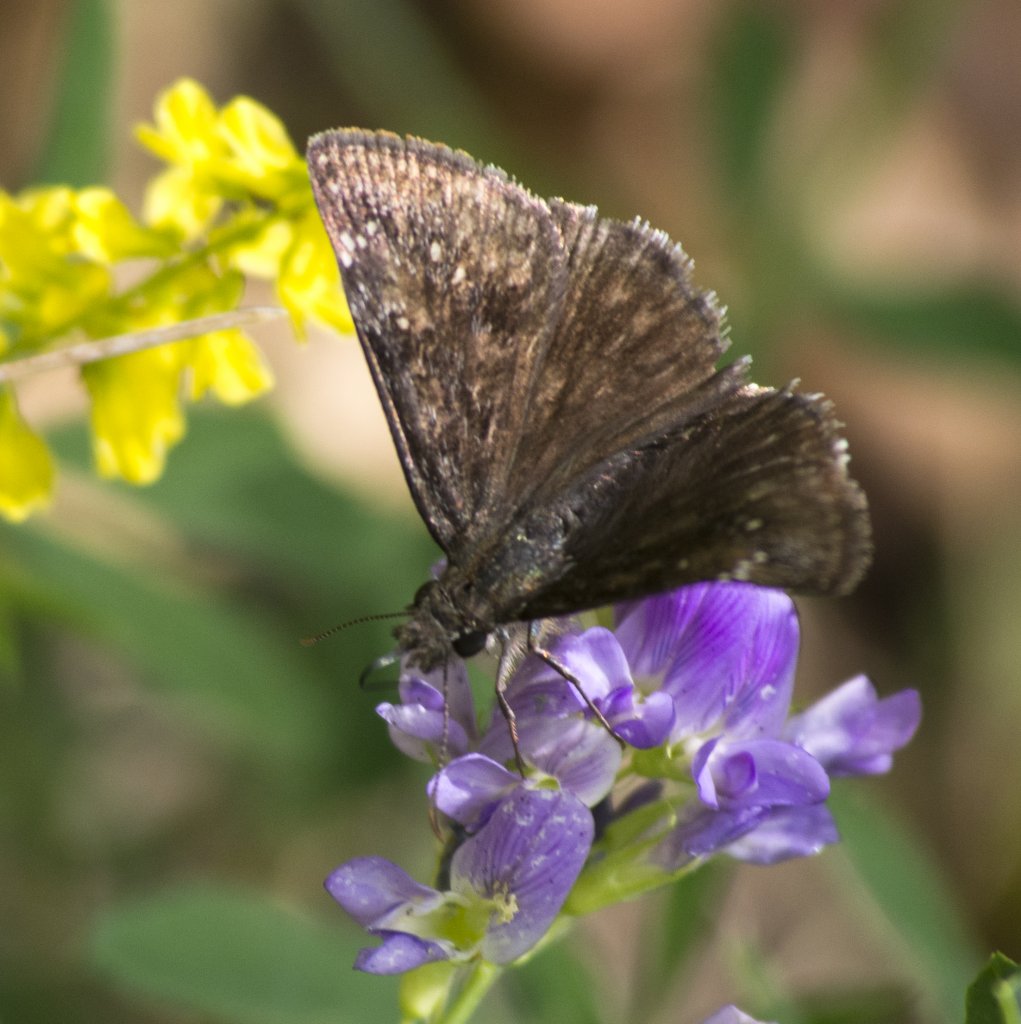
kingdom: Animalia
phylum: Arthropoda
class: Insecta
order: Lepidoptera
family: Hesperiidae
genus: Gesta
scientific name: Gesta
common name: Persius Duskywing
